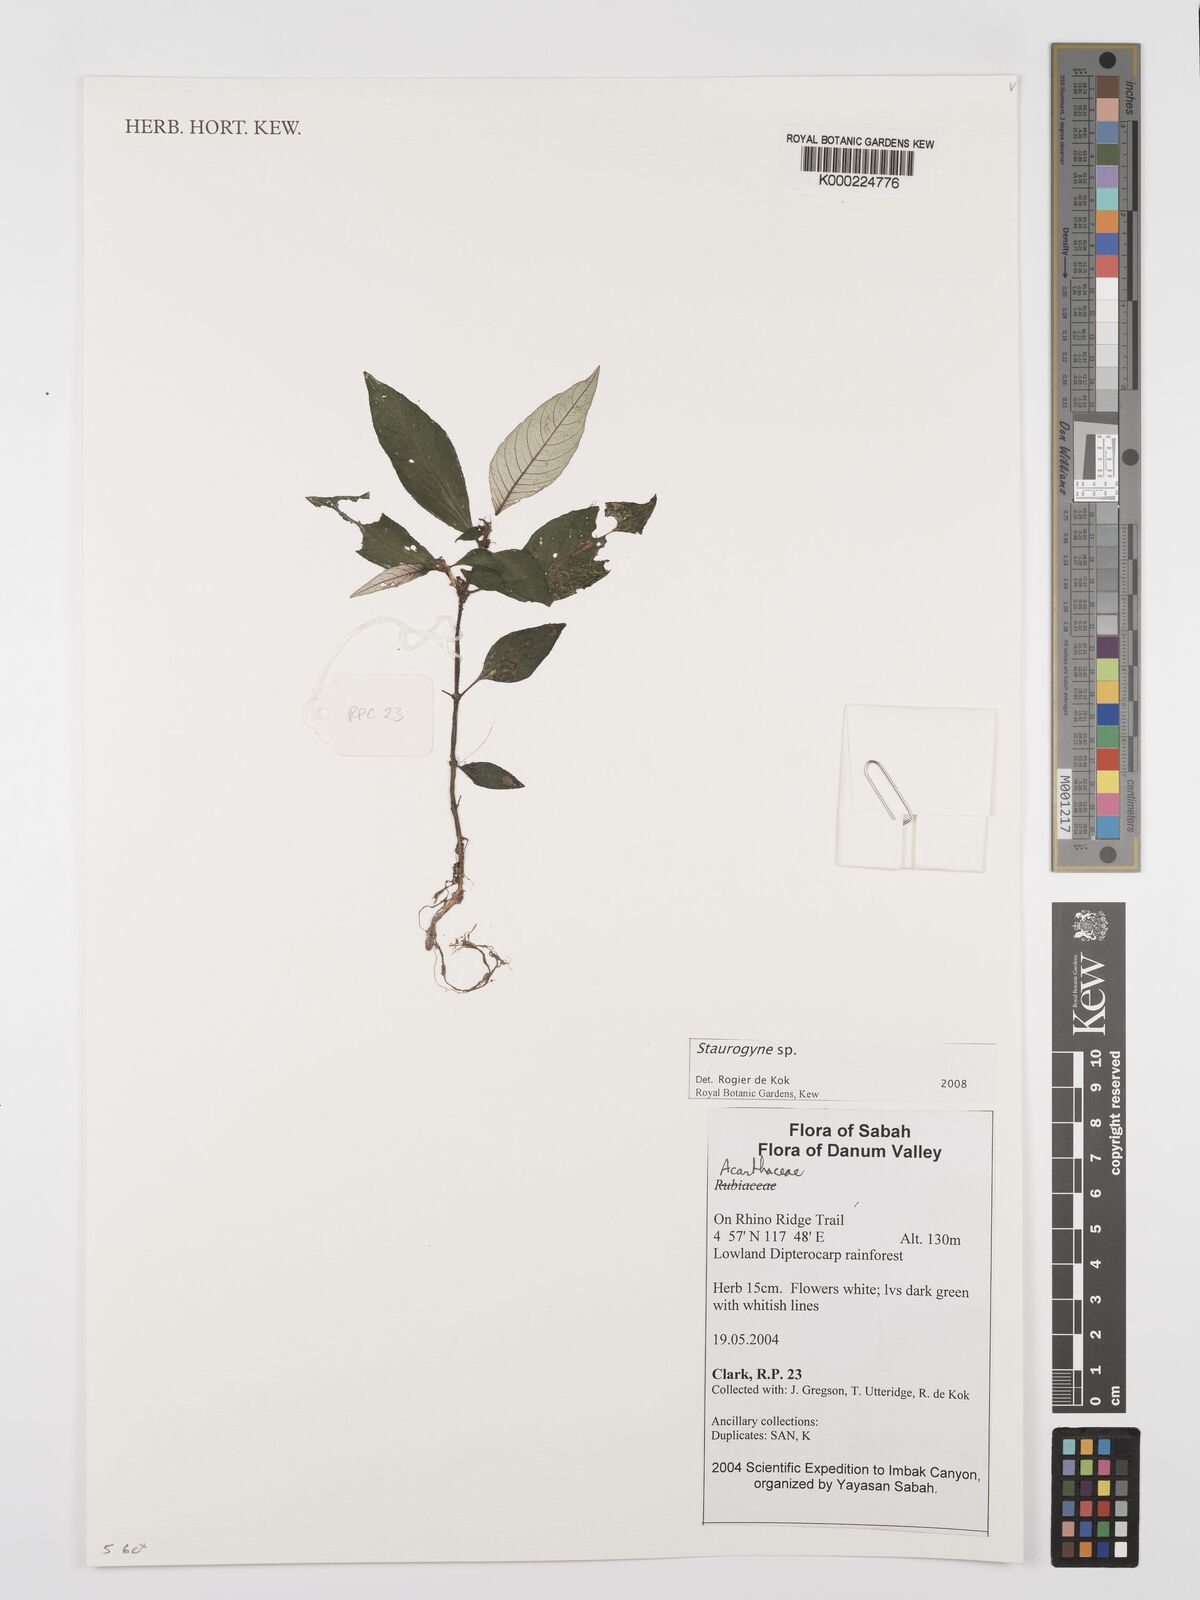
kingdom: Plantae
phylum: Tracheophyta
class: Magnoliopsida
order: Lamiales
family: Acanthaceae
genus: Staurogyne
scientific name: Staurogyne
